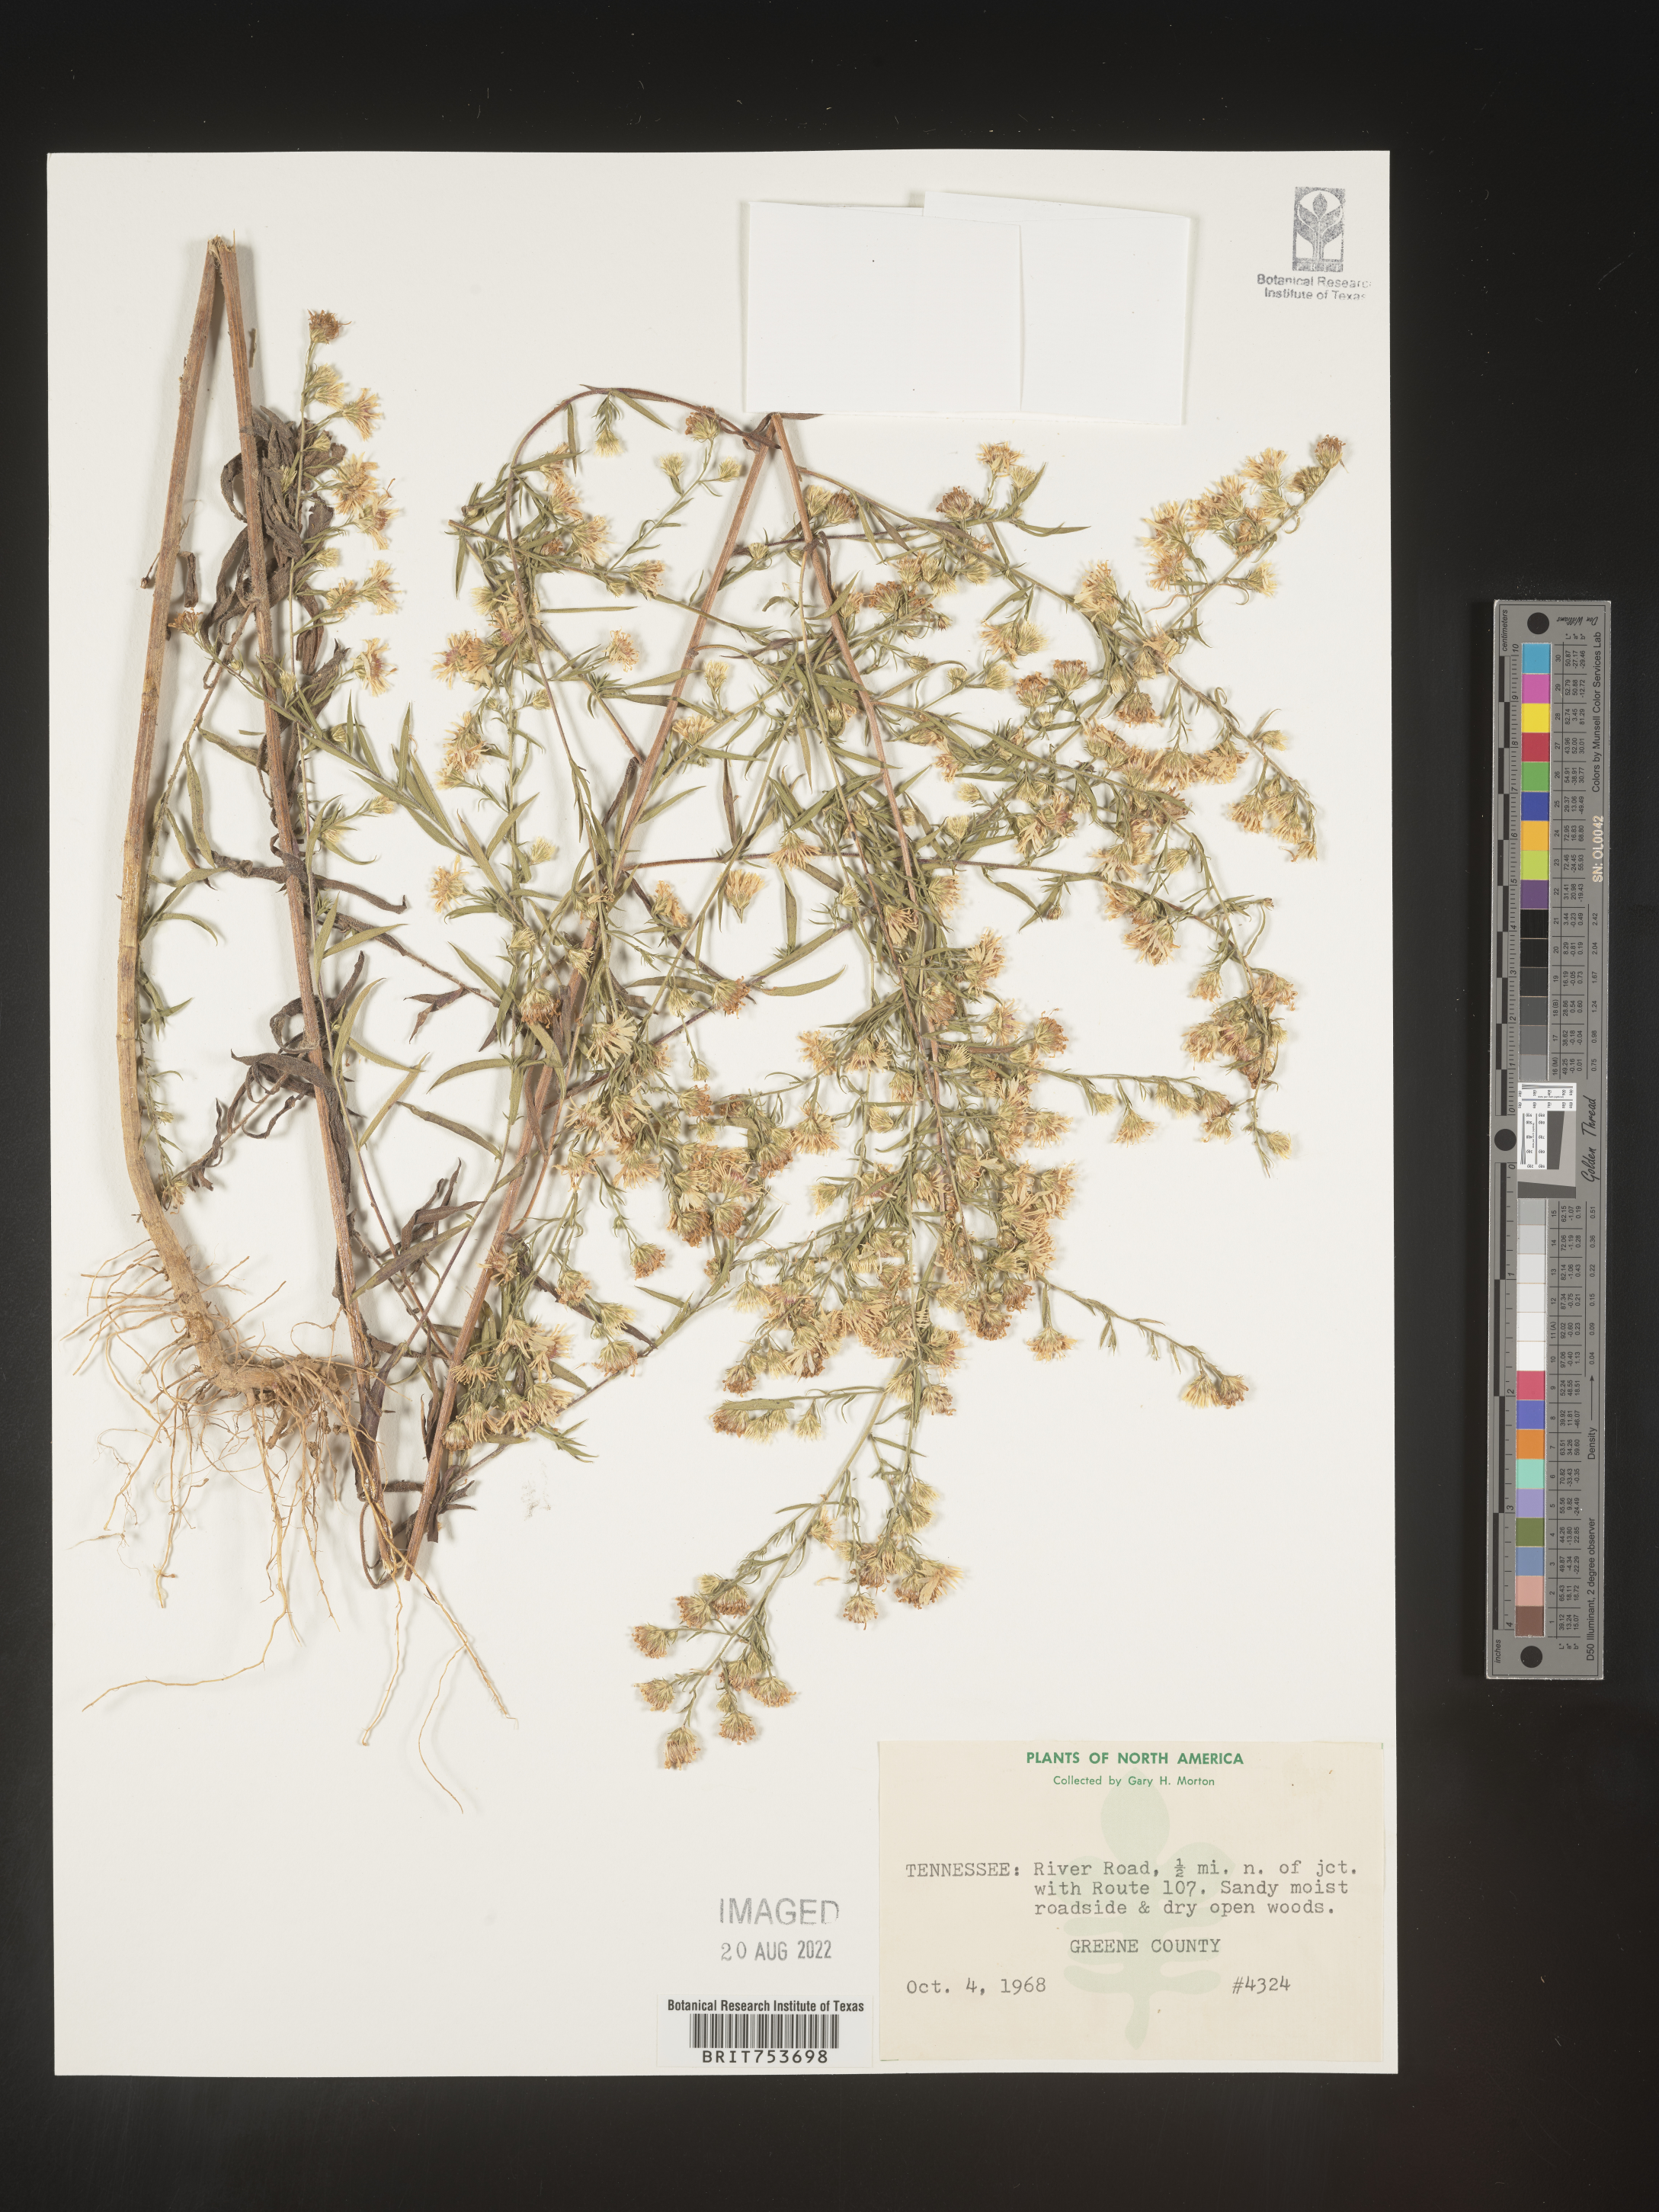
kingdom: Plantae
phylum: Tracheophyta
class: Magnoliopsida
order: Asterales
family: Asteraceae
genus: Symphyotrichum
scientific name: Symphyotrichum pilosum
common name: Awl aster
